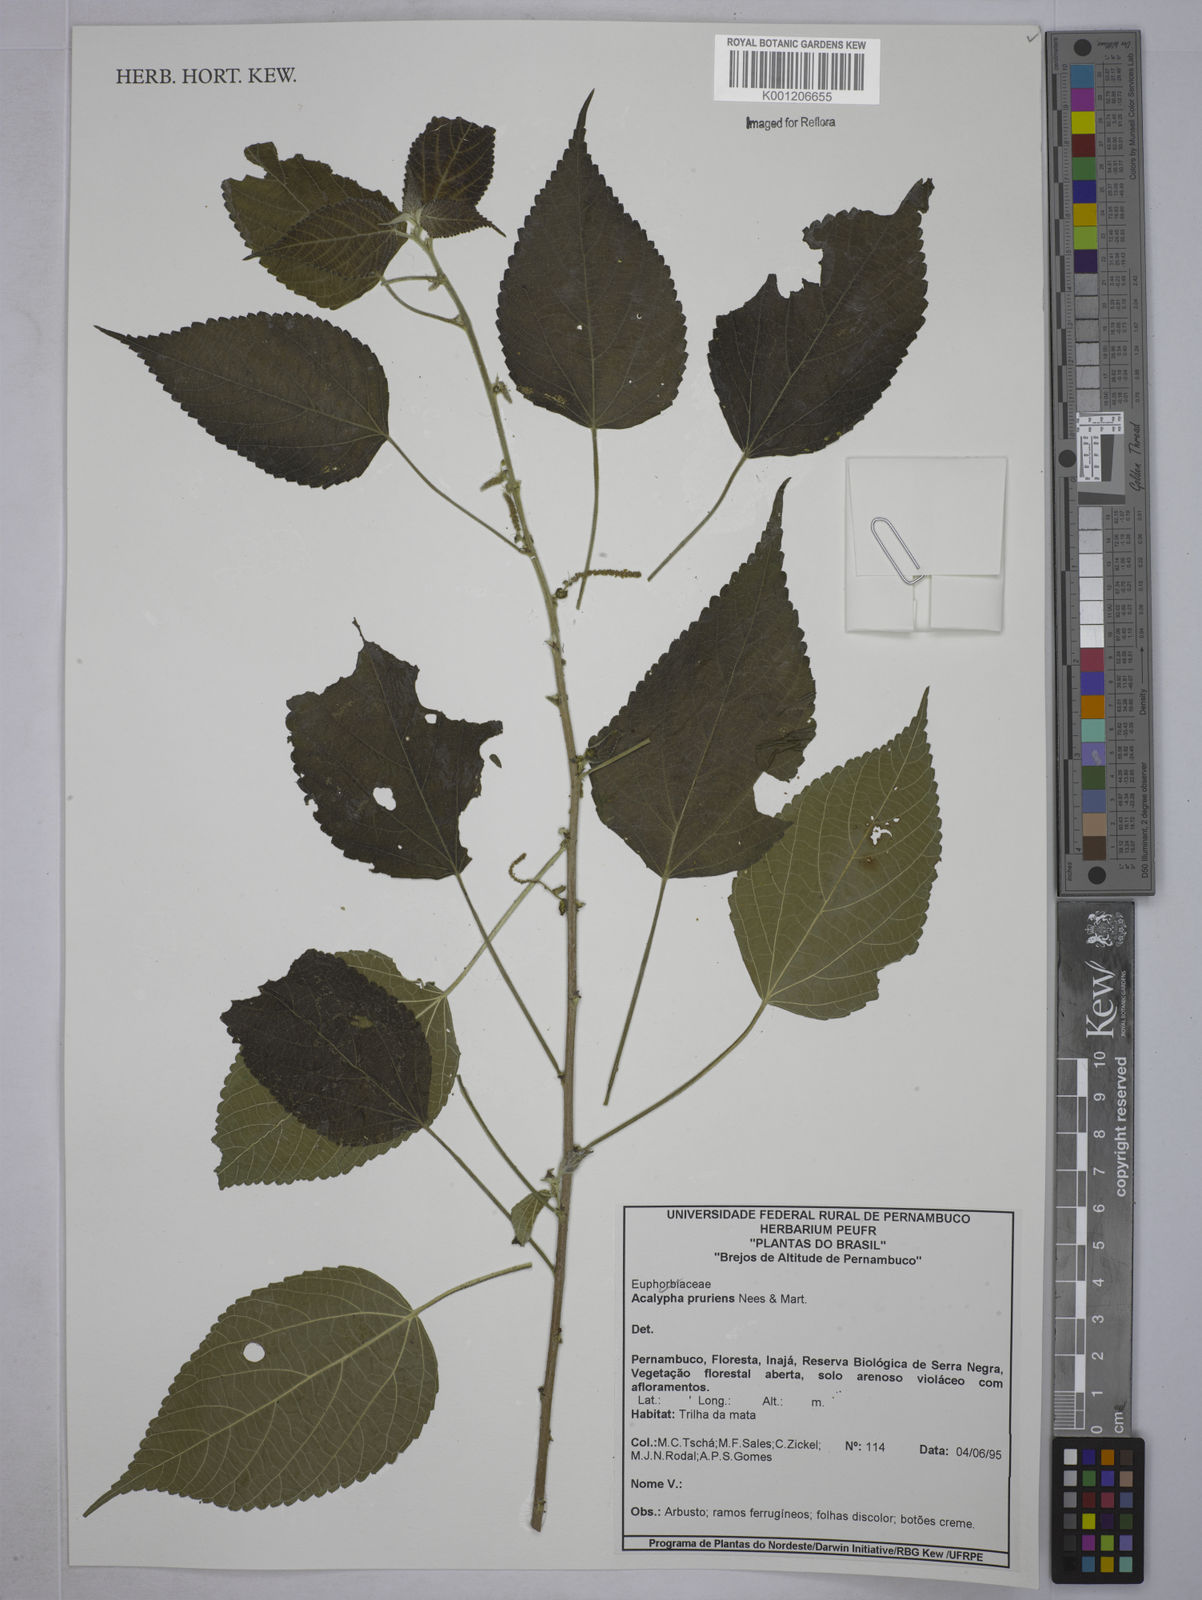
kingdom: Plantae
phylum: Tracheophyta
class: Magnoliopsida
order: Malpighiales
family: Euphorbiaceae
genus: Acalypha
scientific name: Acalypha pruriens
